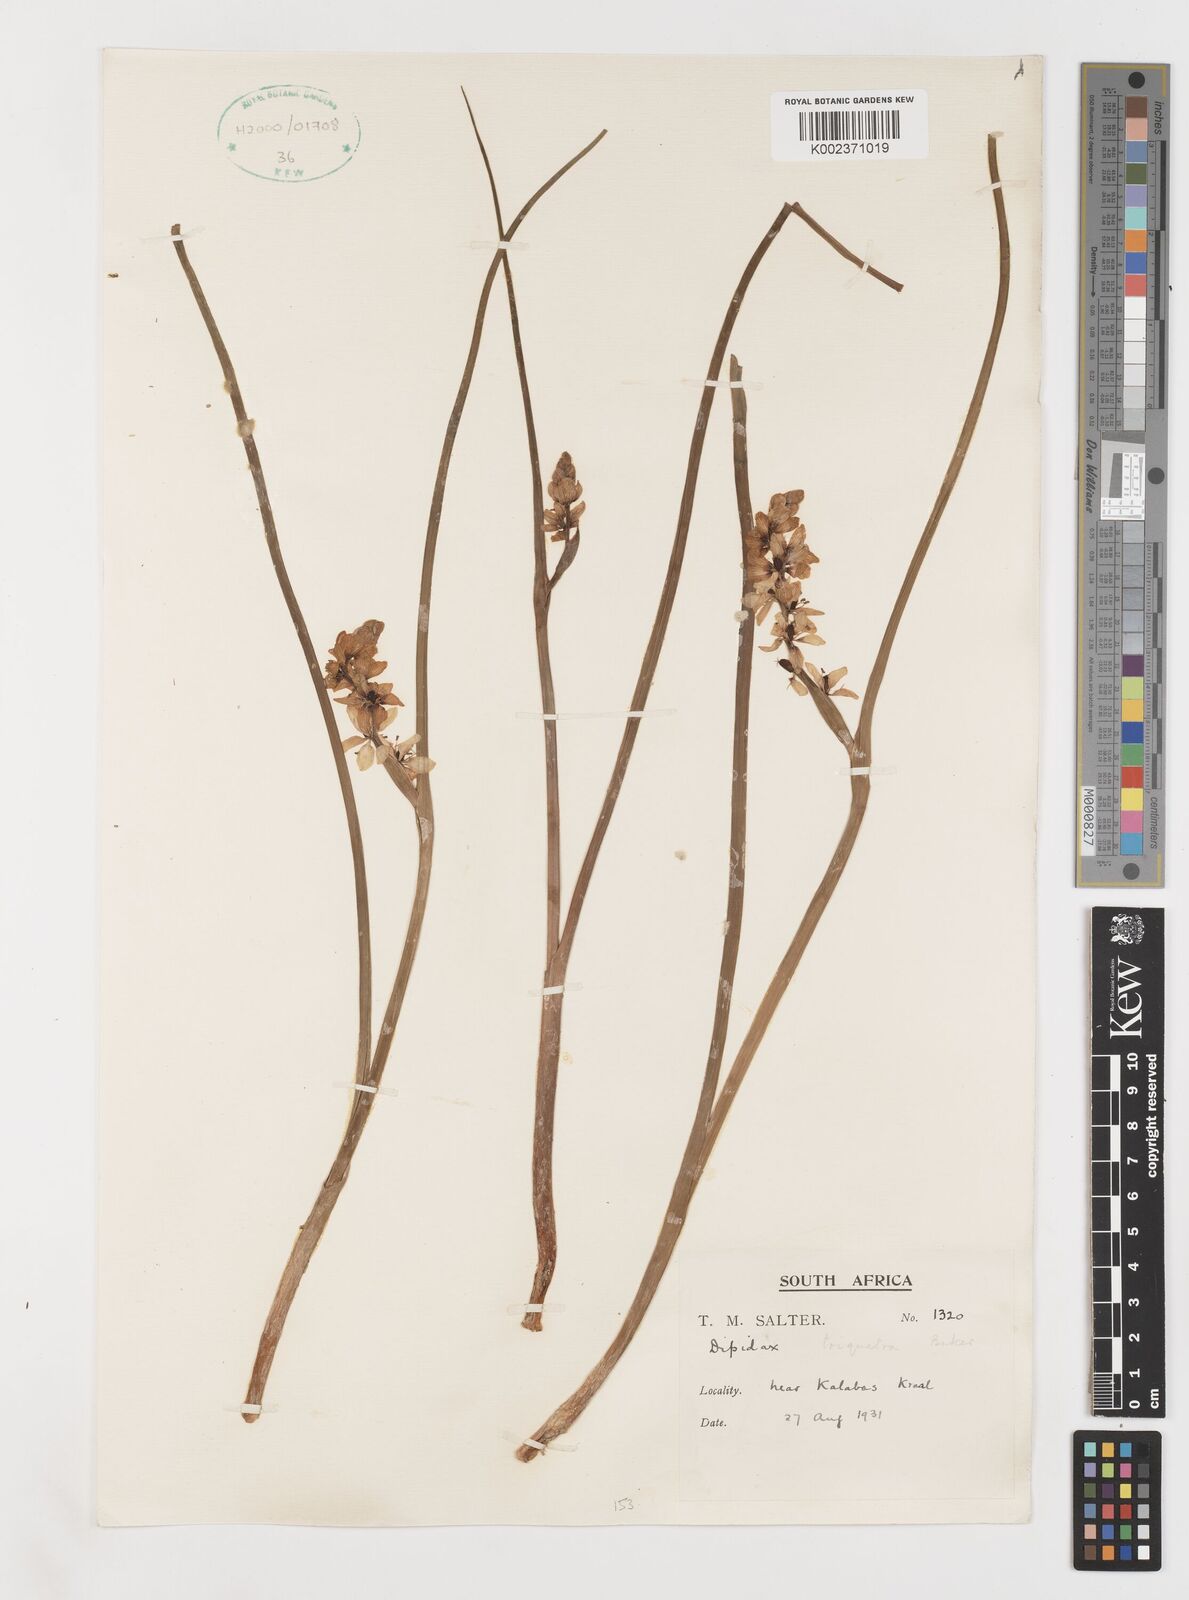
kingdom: Plantae
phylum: Tracheophyta
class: Liliopsida
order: Liliales
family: Colchicaceae
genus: Wurmbea
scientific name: Wurmbea stricta
